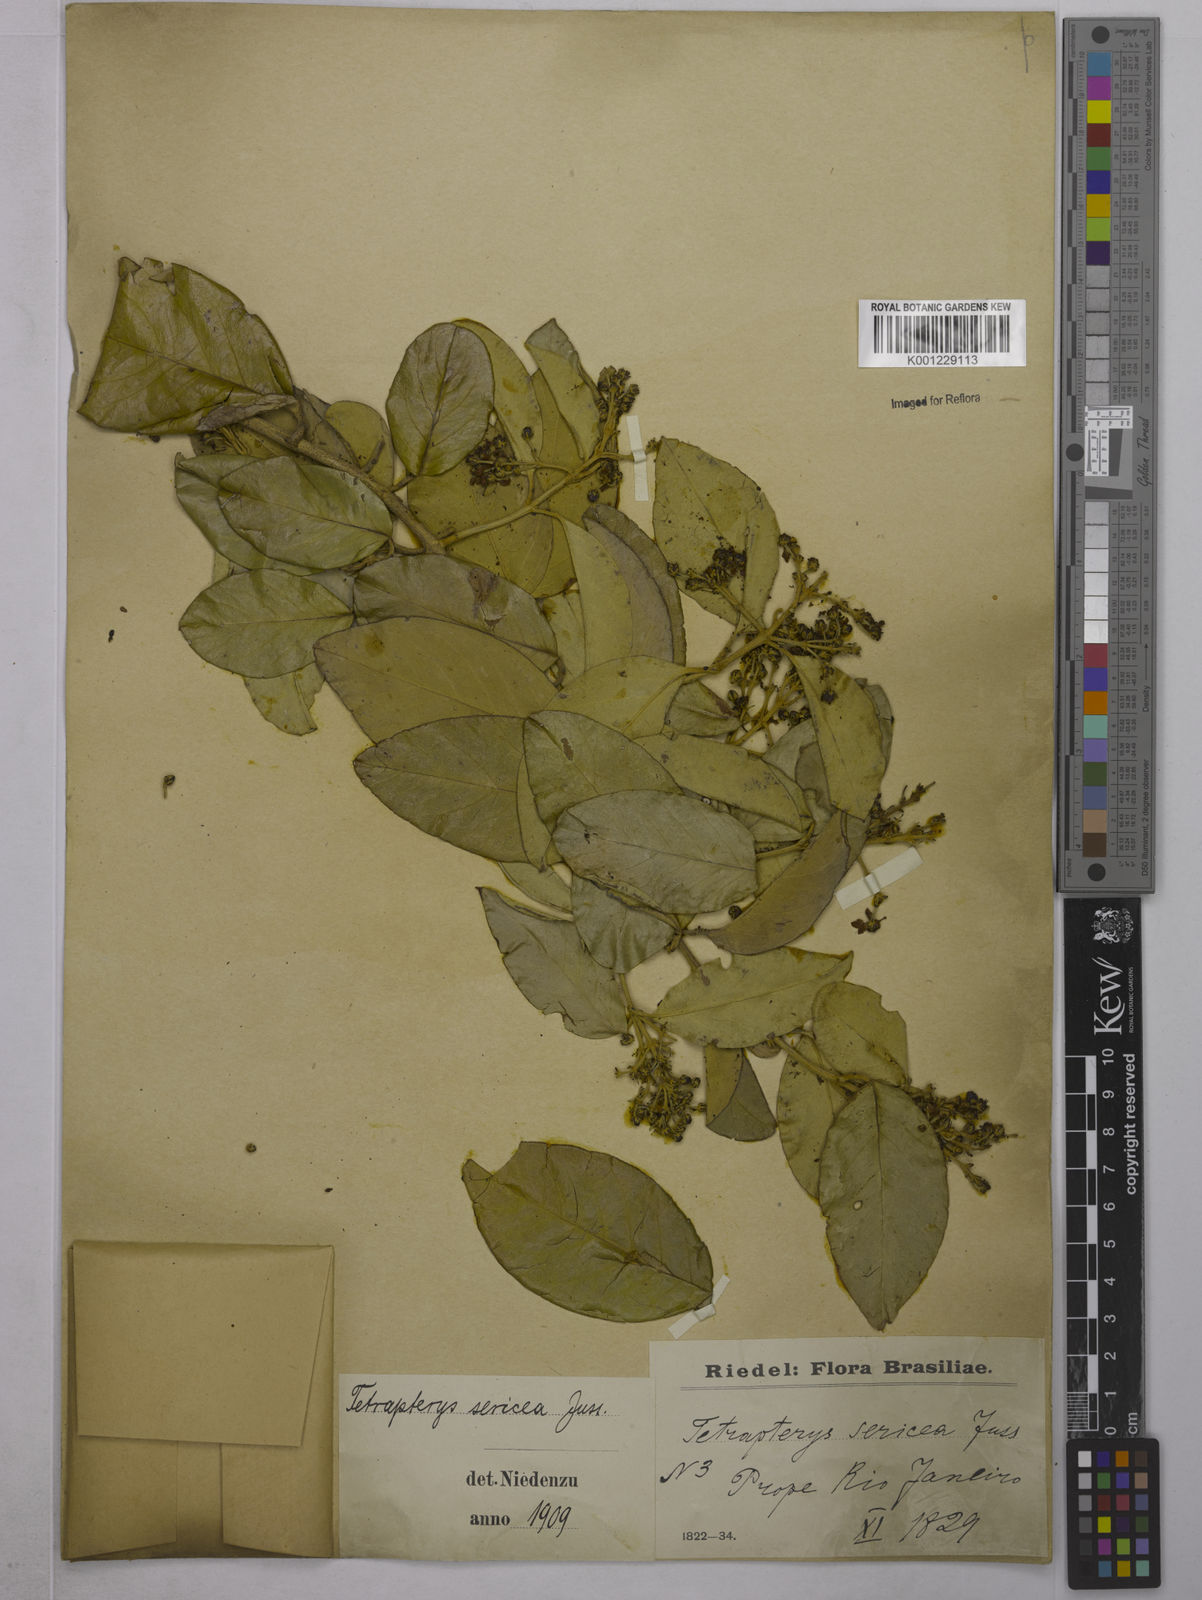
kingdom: Plantae
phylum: Tracheophyta
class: Magnoliopsida
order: Malpighiales
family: Malpighiaceae
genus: Niedenzuella
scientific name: Niedenzuella sericea
